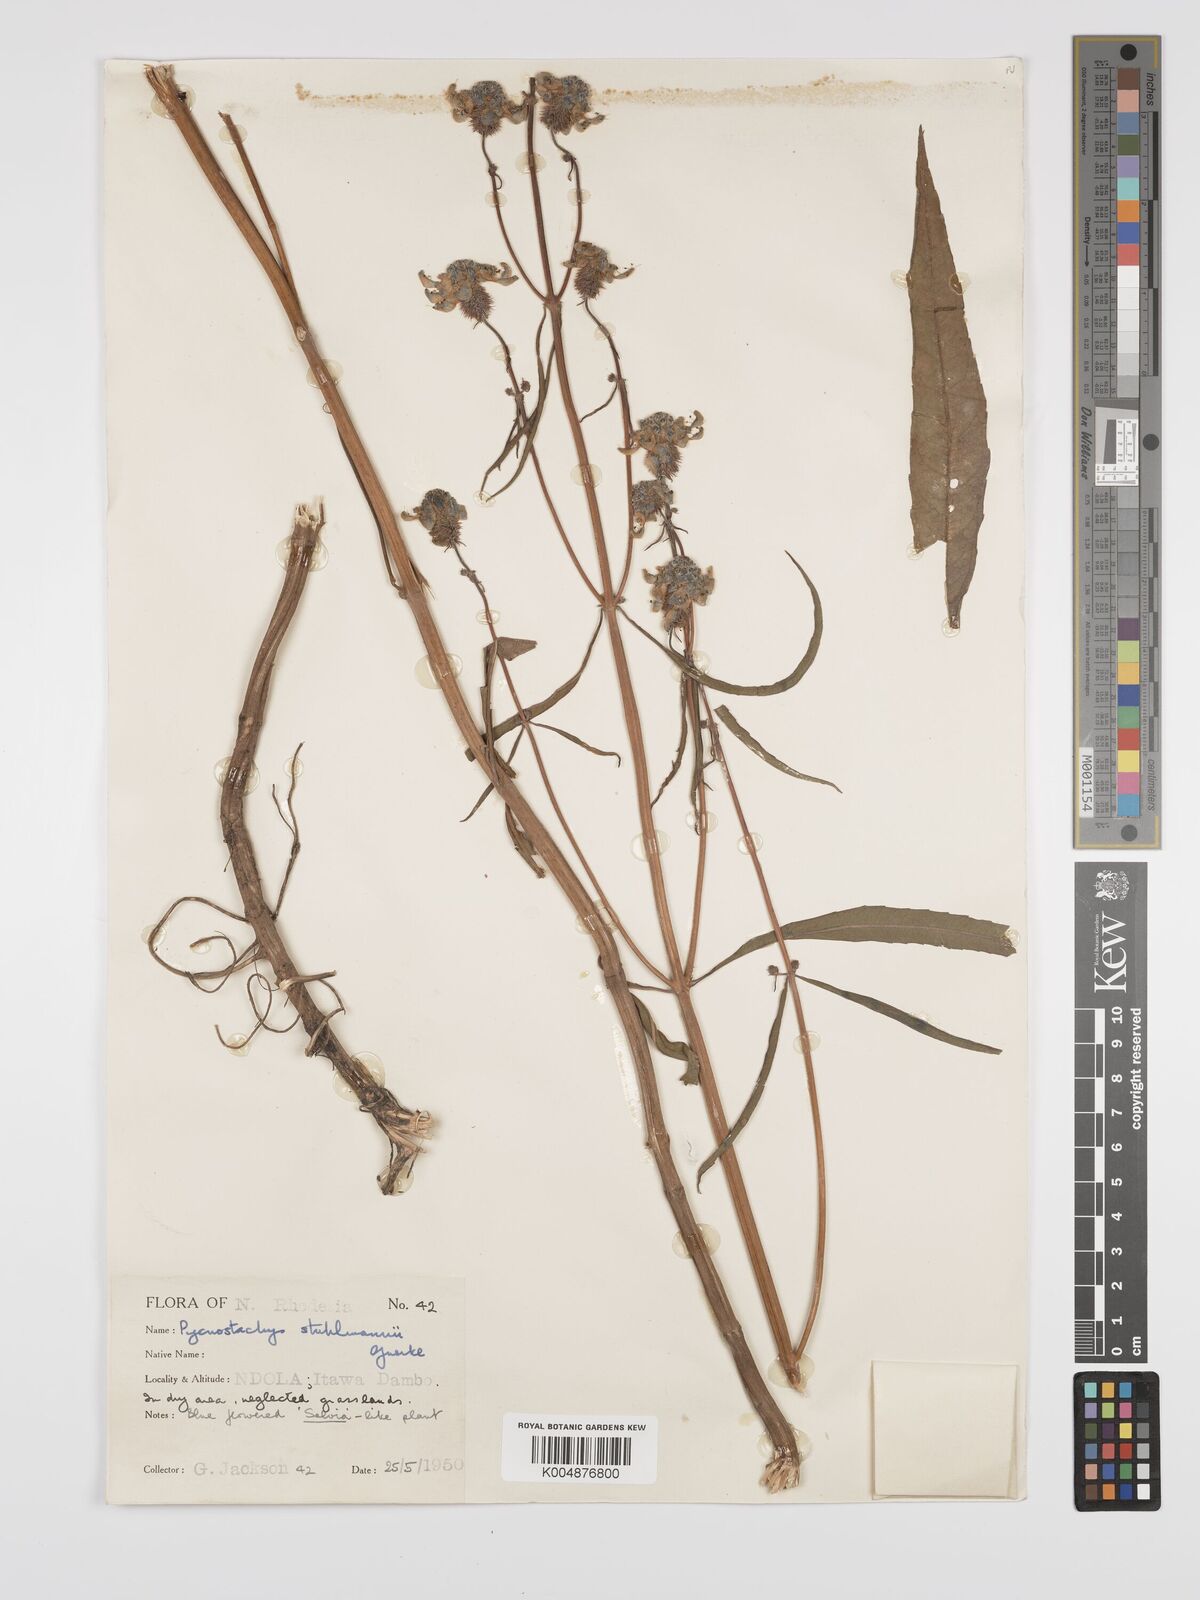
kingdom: Plantae
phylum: Tracheophyta
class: Magnoliopsida
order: Lamiales
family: Lamiaceae
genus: Coleus
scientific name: Coleus stuhlmannii
